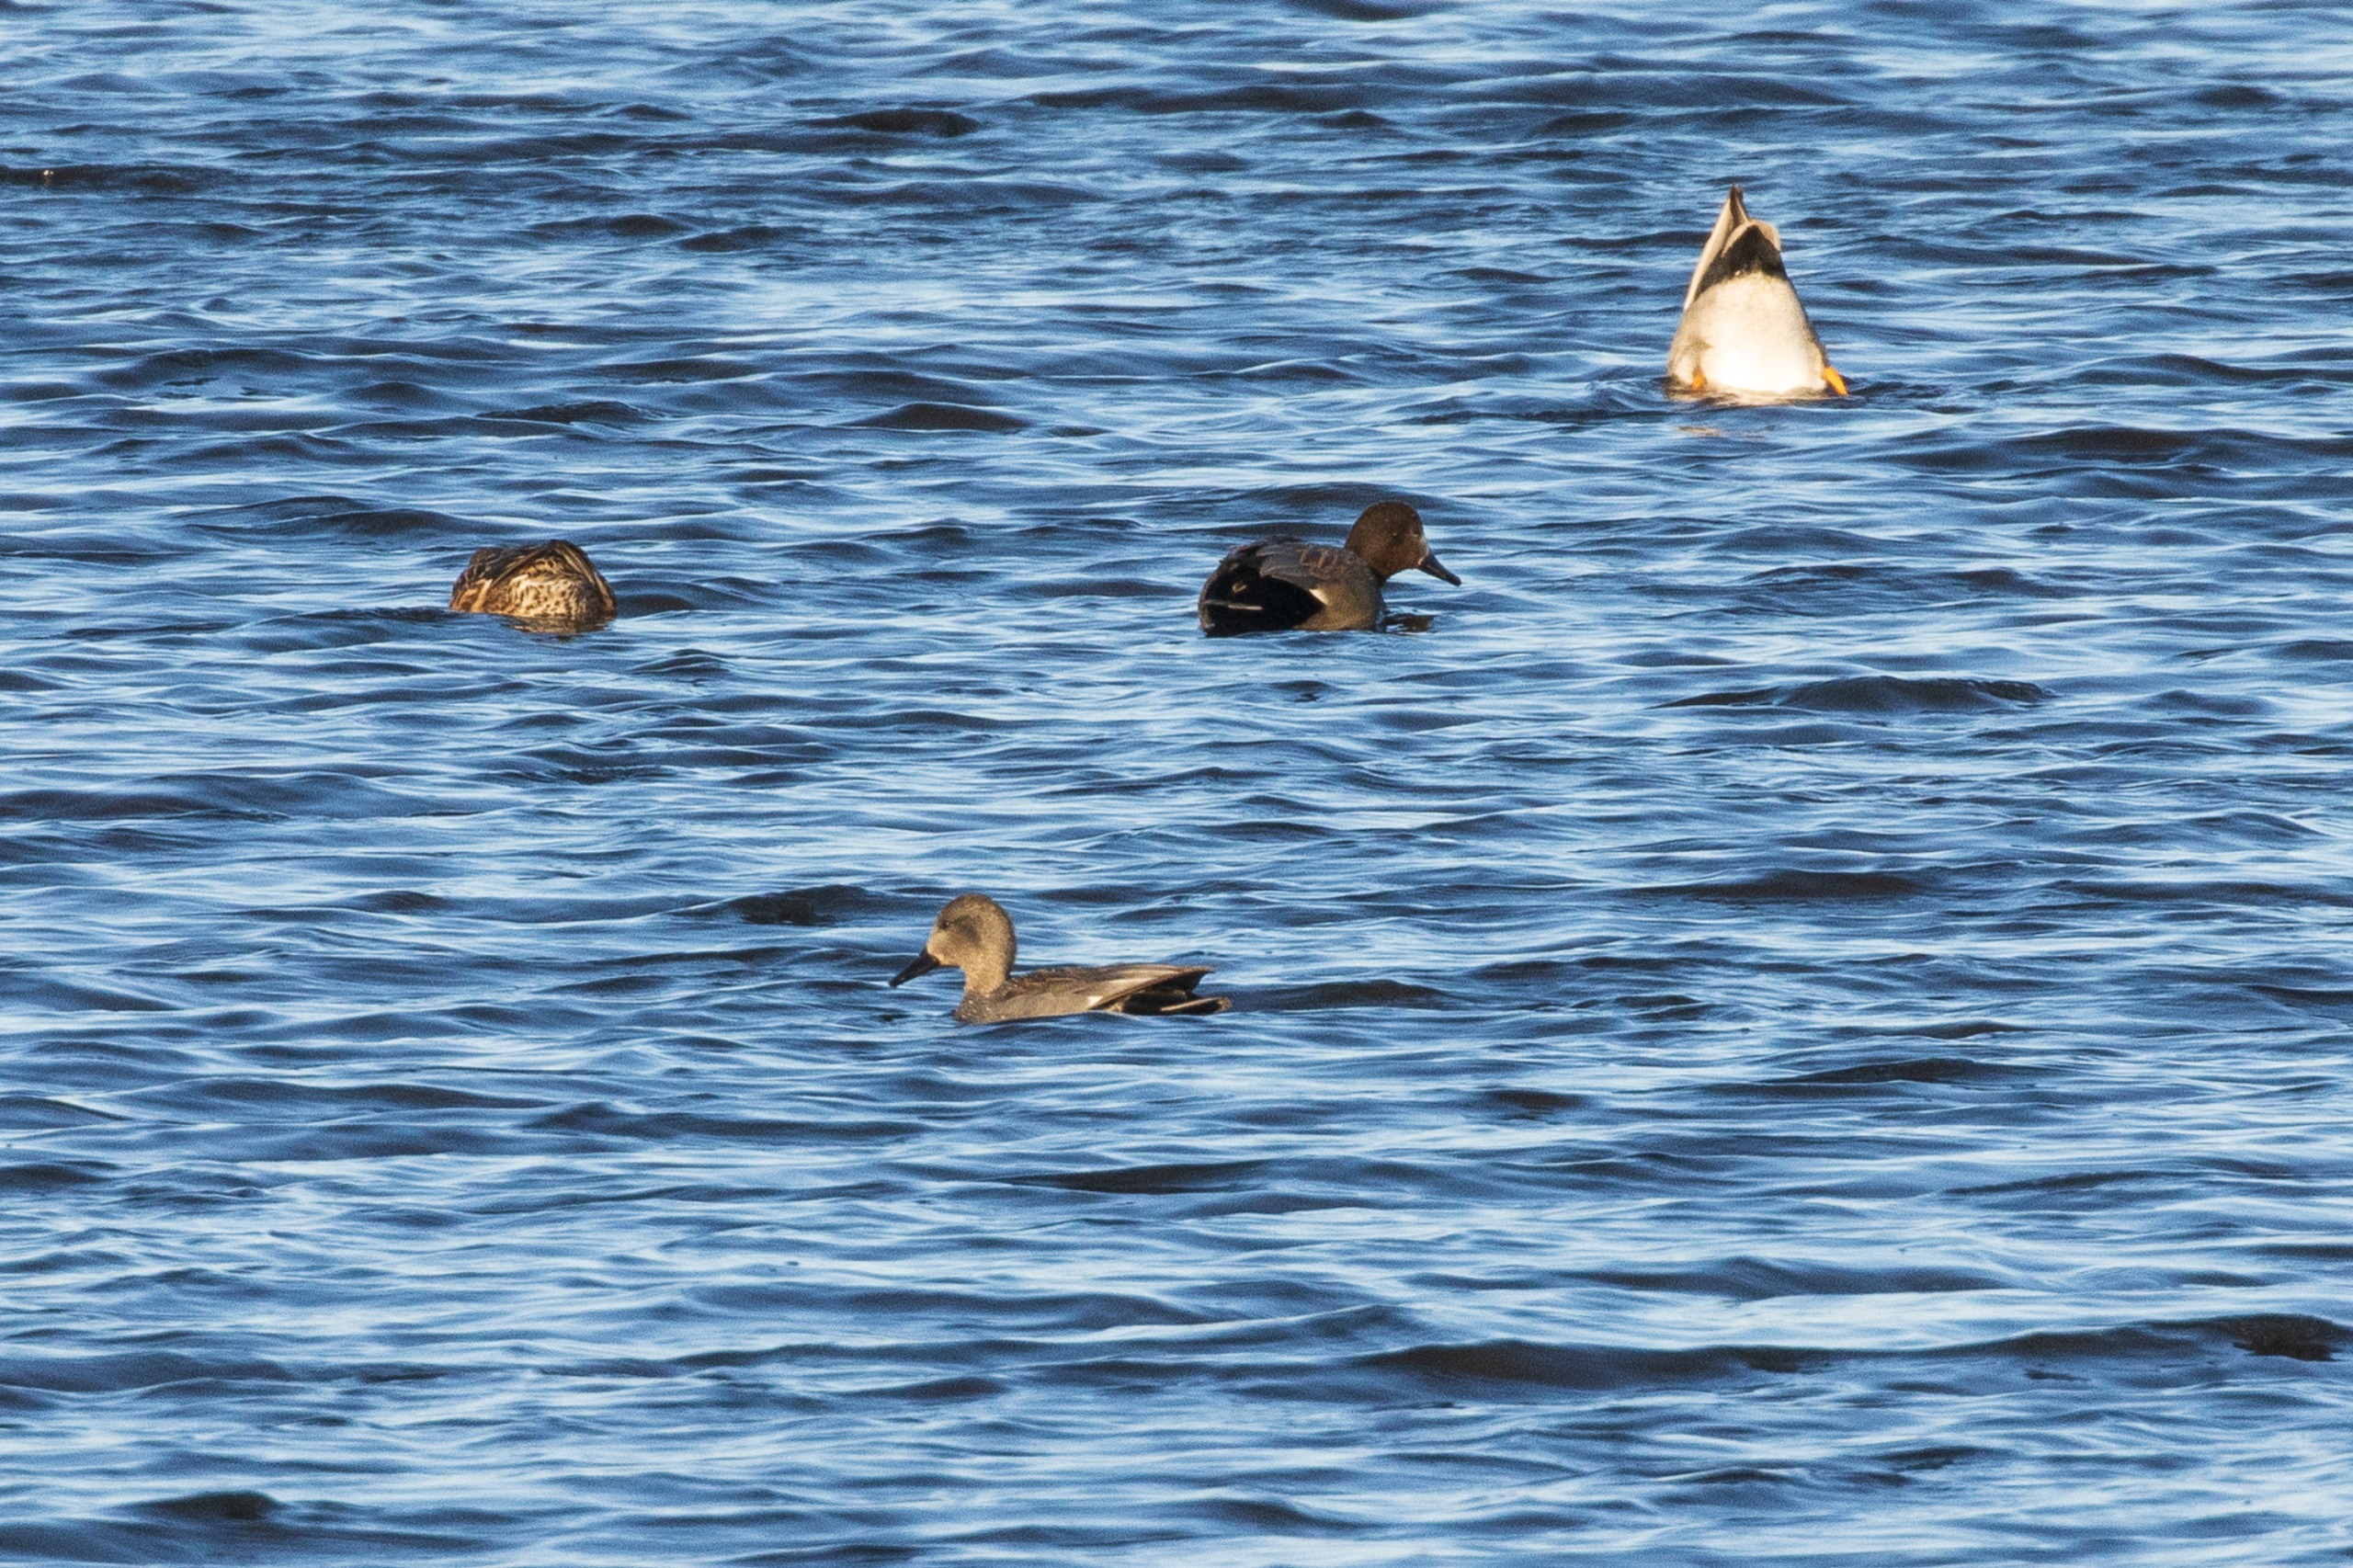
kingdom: Animalia
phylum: Chordata
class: Aves
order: Anseriformes
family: Anatidae
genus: Mareca
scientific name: Mareca strepera
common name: Knarand
